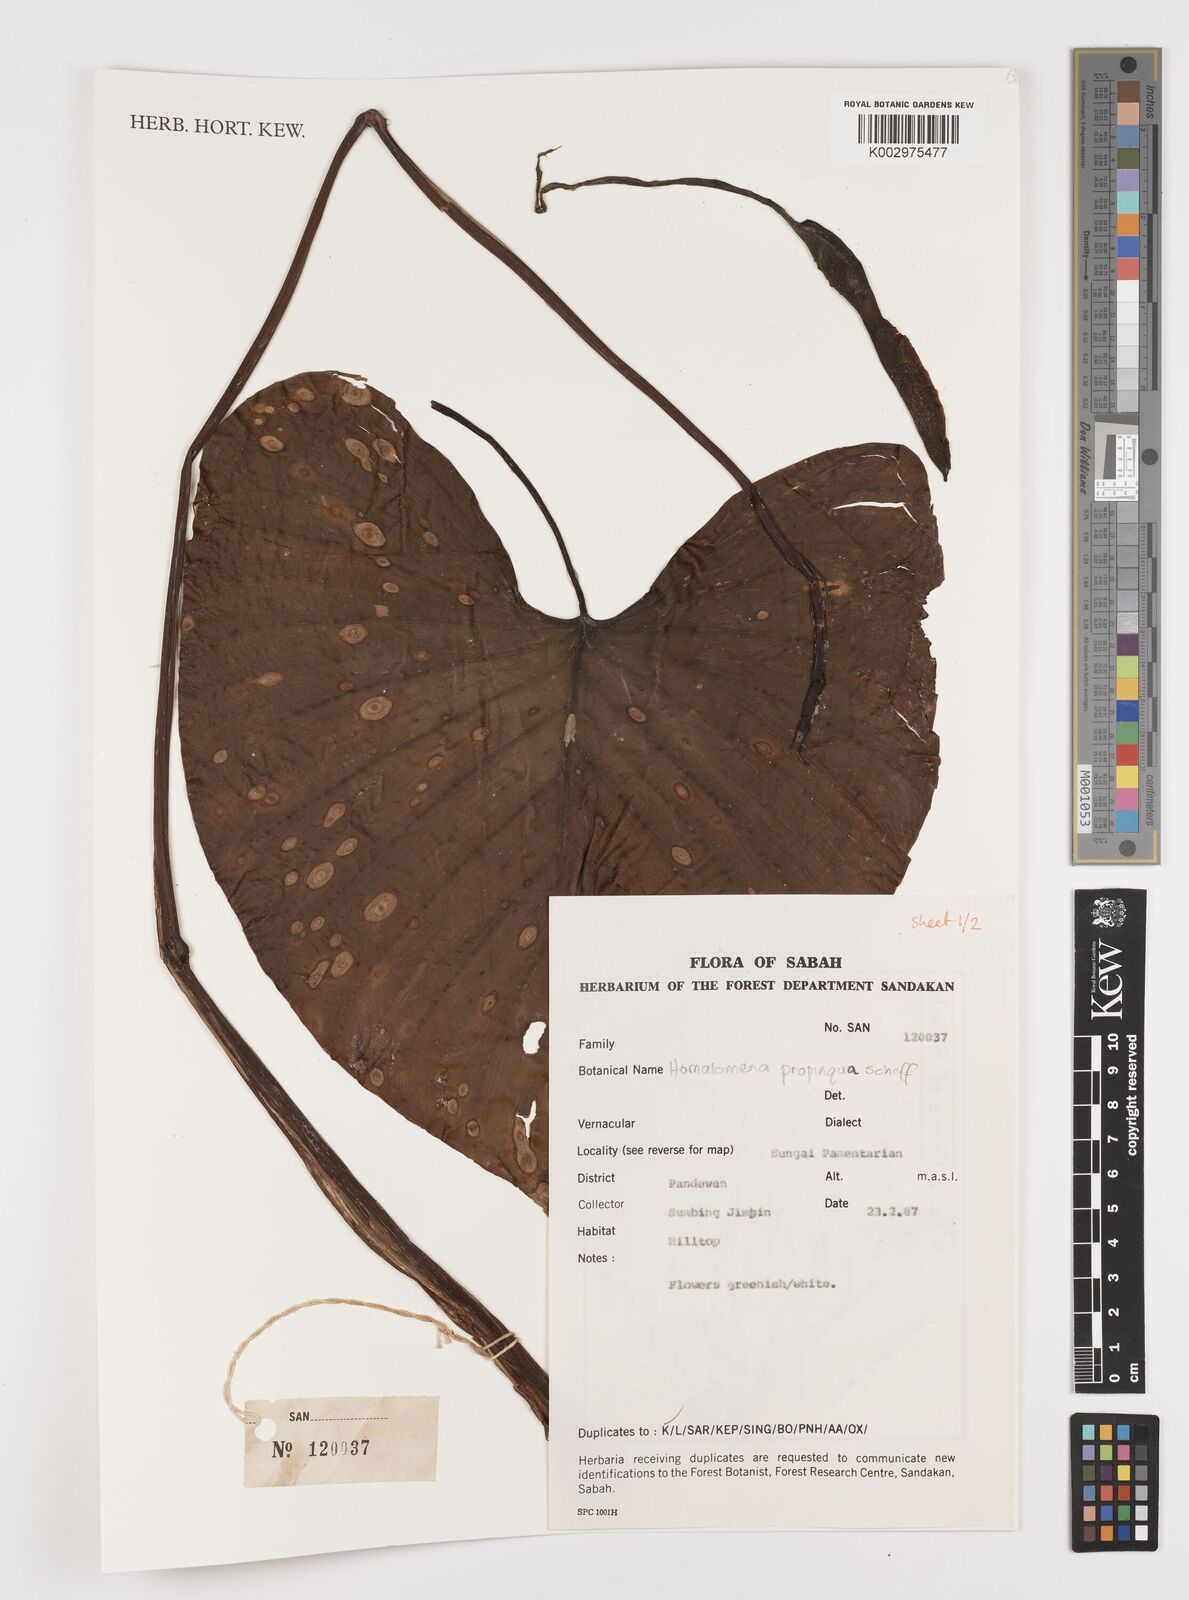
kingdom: Plantae
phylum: Tracheophyta
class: Liliopsida
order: Alismatales
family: Araceae
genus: Homalomena
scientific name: Homalomena humilis
